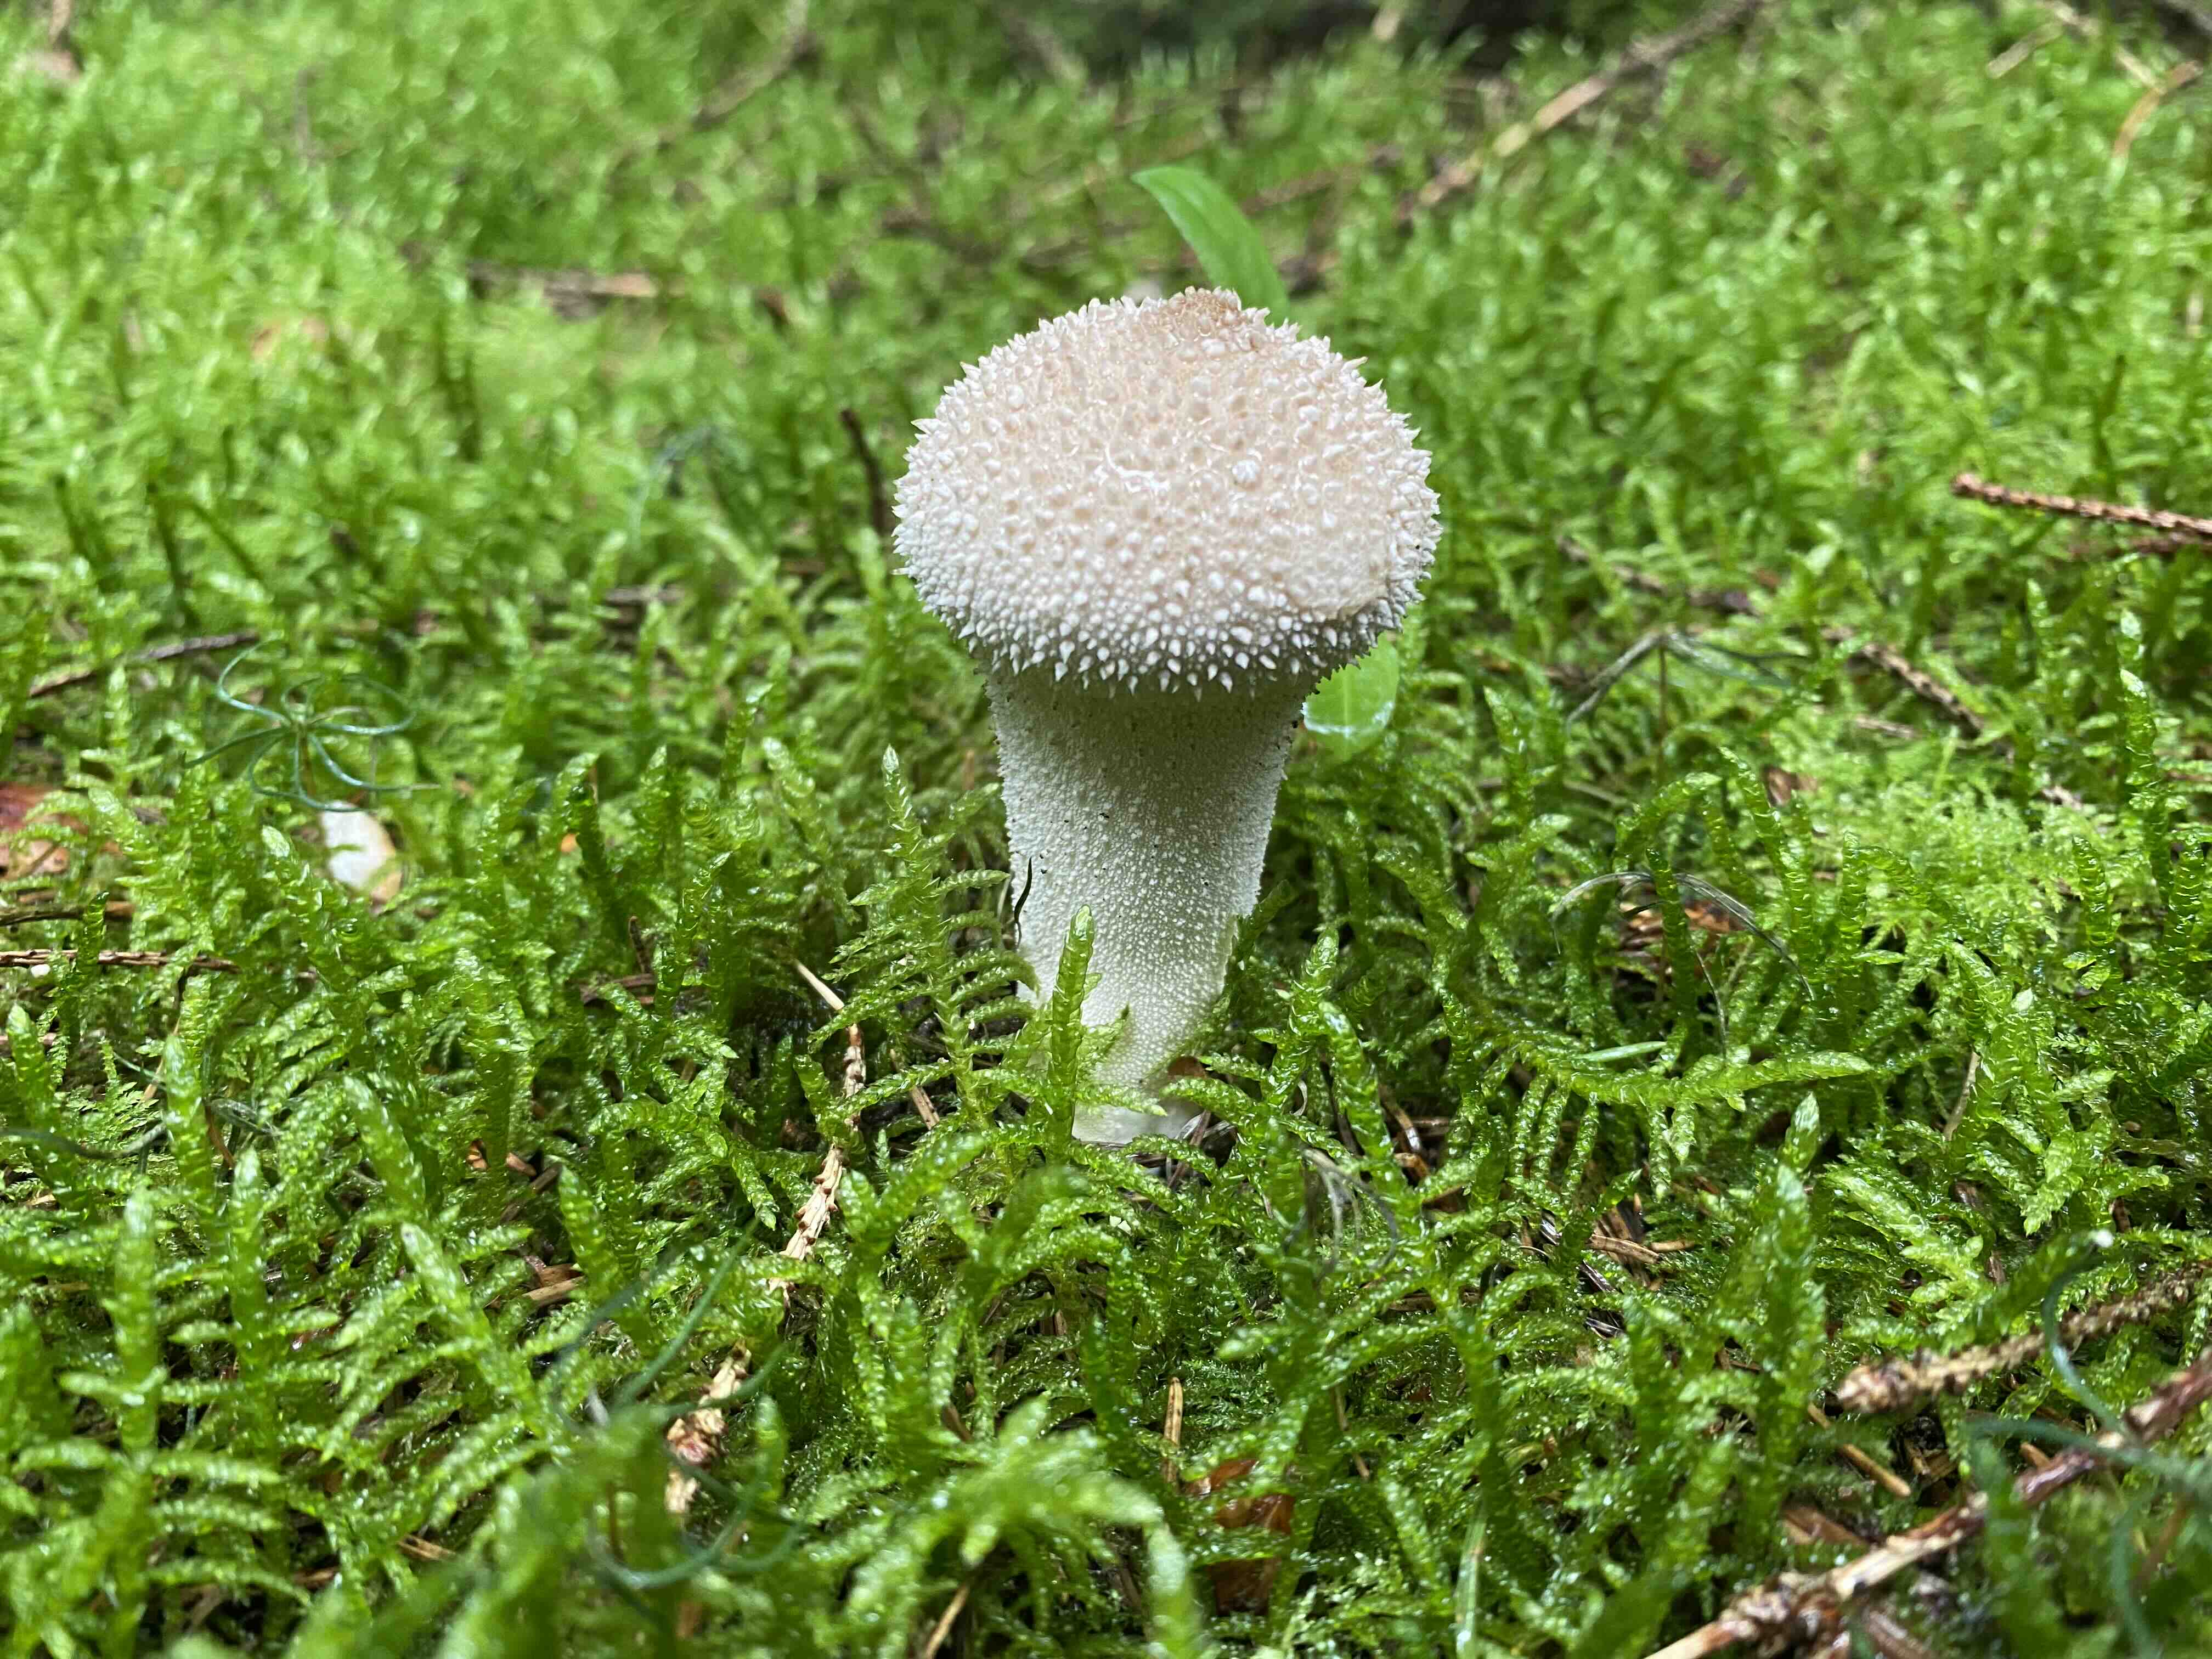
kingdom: Fungi
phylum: Basidiomycota
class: Agaricomycetes
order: Agaricales
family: Lycoperdaceae
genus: Lycoperdon
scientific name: Lycoperdon perlatum
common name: krystal-støvbold
